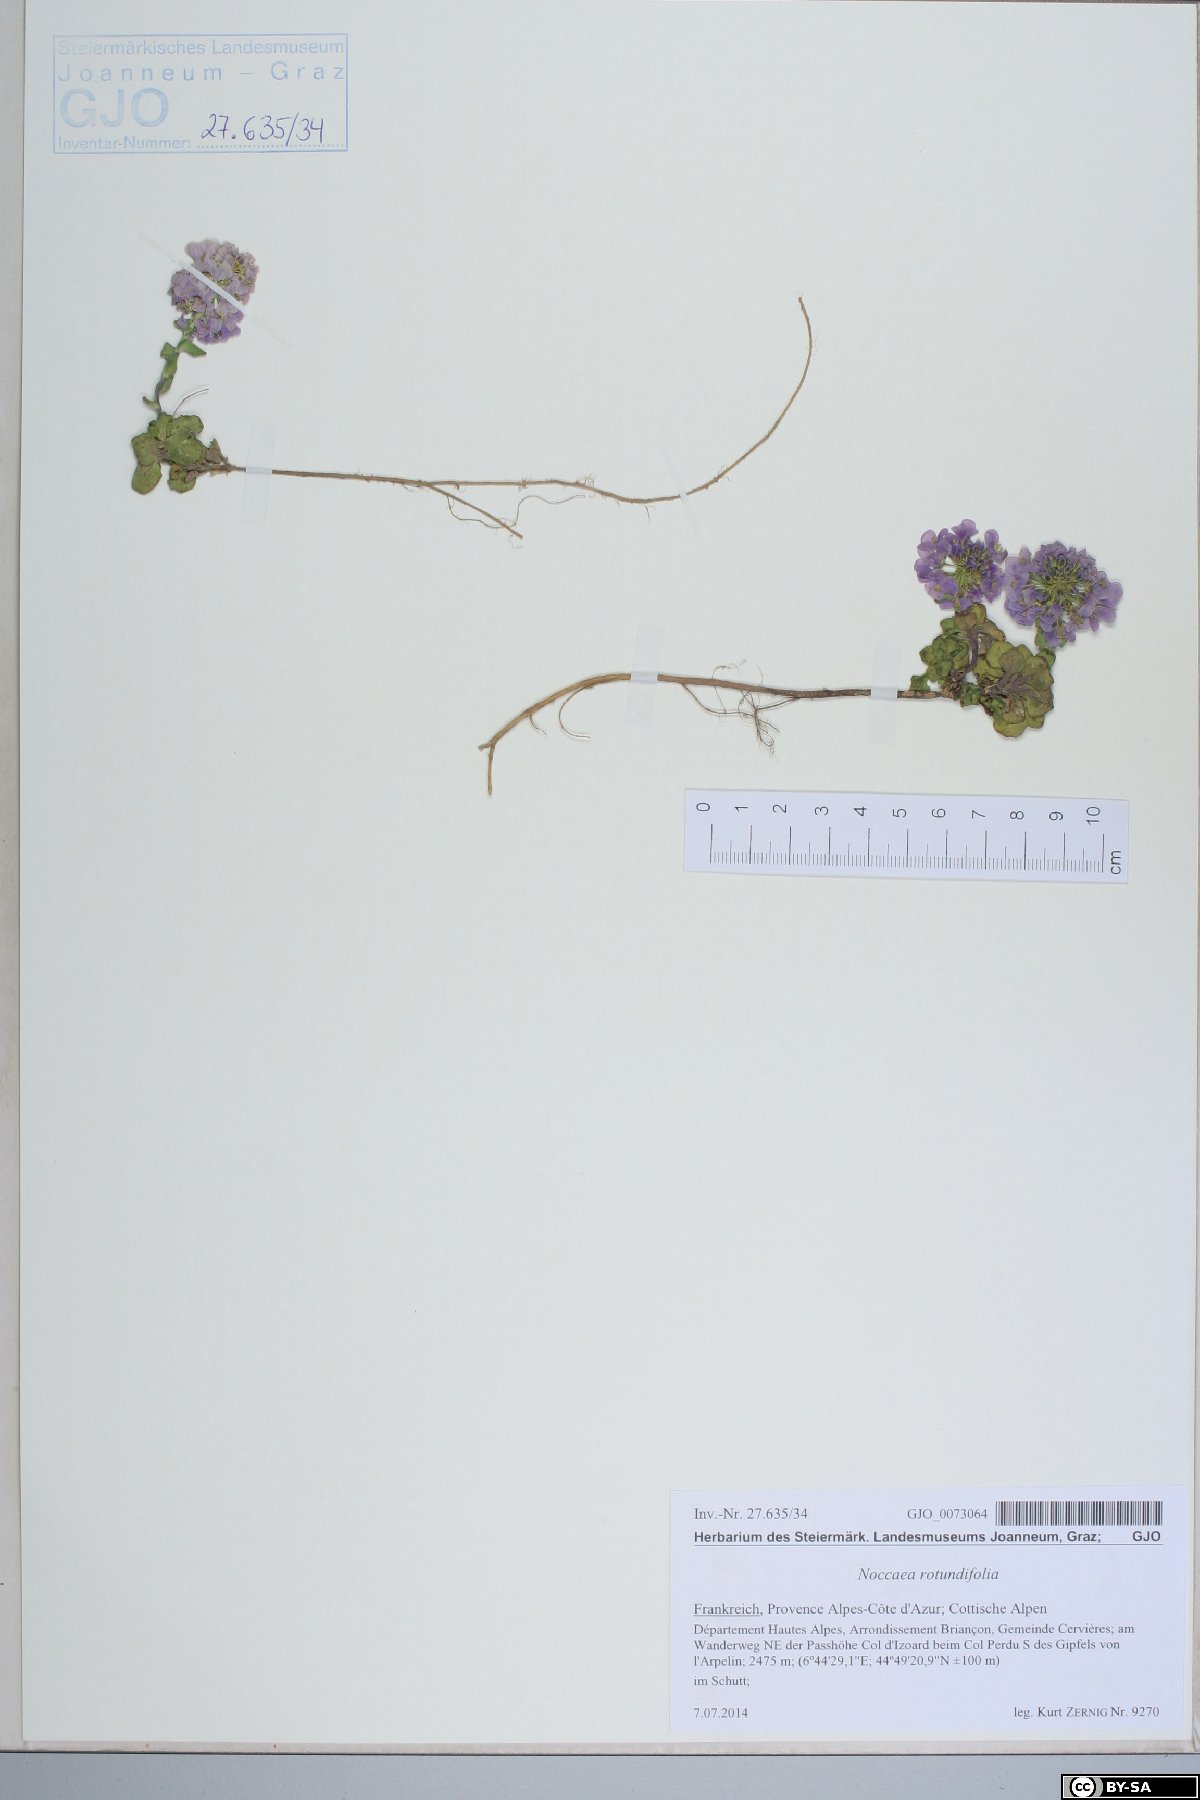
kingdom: Plantae
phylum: Tracheophyta
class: Magnoliopsida
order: Brassicales
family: Brassicaceae
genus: Noccaea
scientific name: Noccaea rotundifolia
